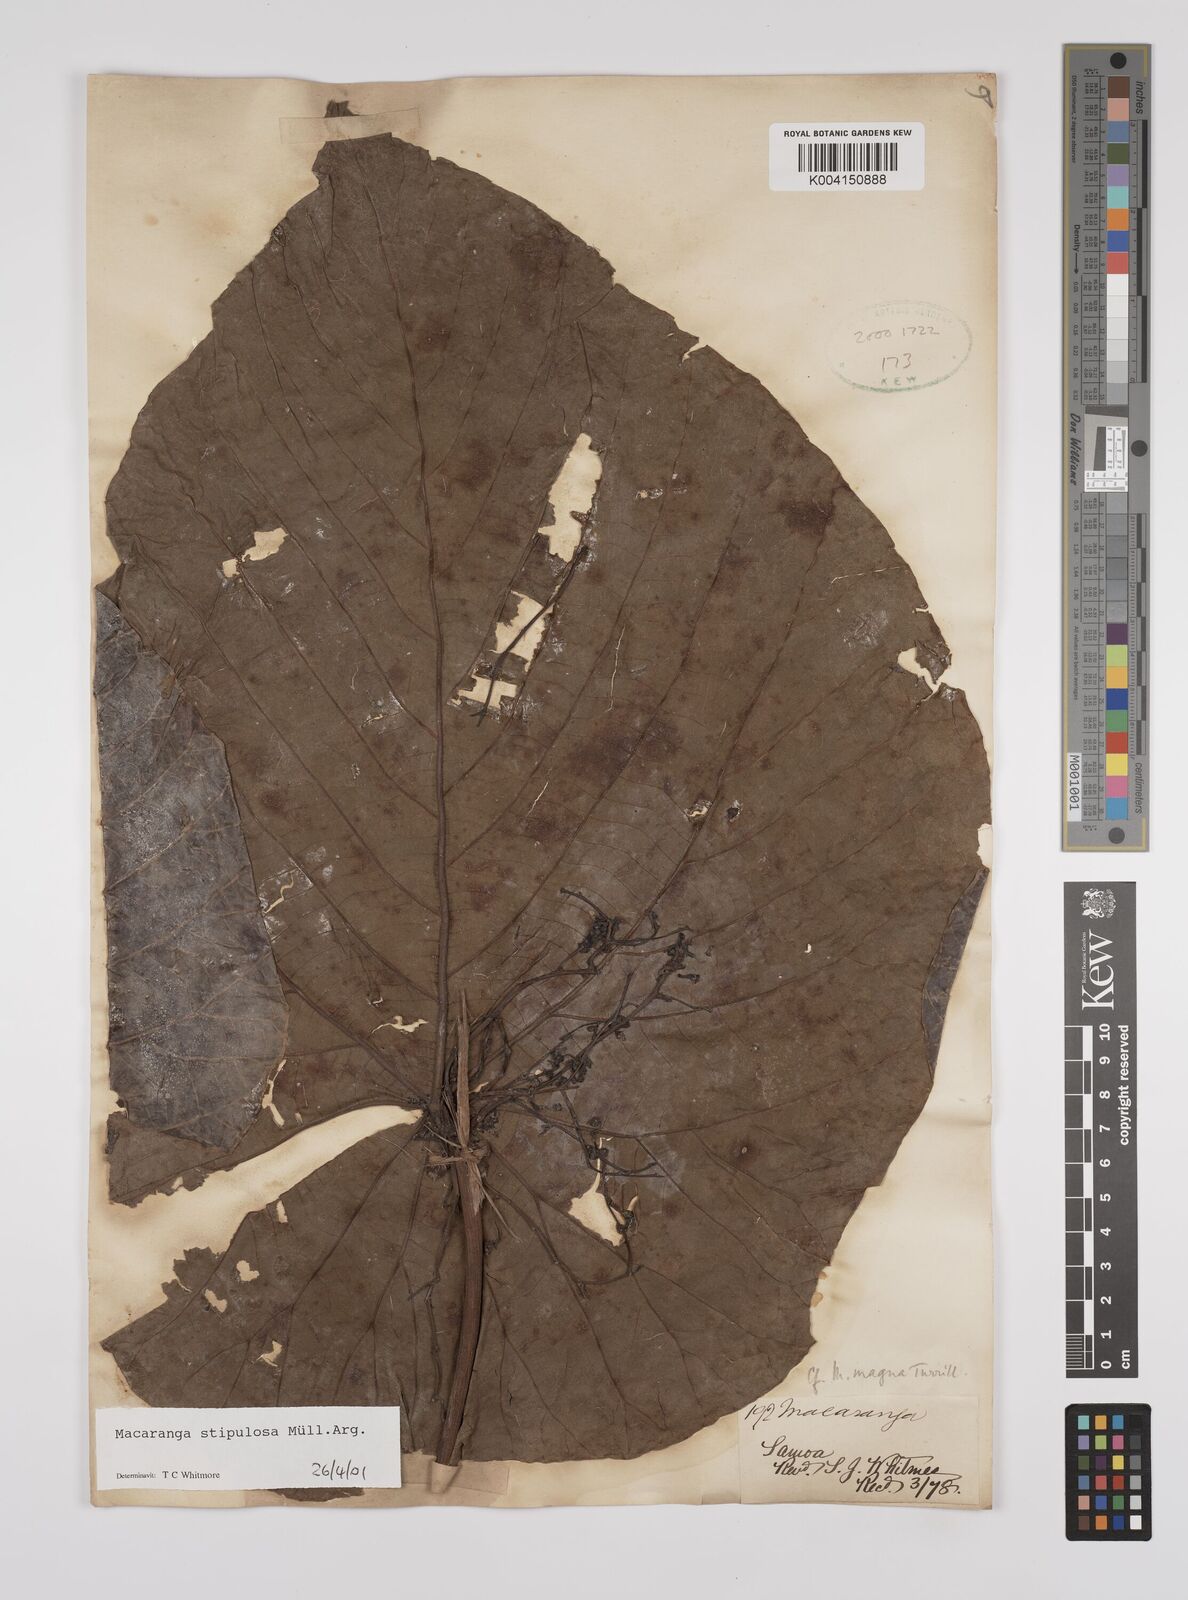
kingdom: Plantae
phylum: Tracheophyta
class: Magnoliopsida
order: Malpighiales
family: Euphorbiaceae
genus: Macaranga
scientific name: Macaranga stipulosa
